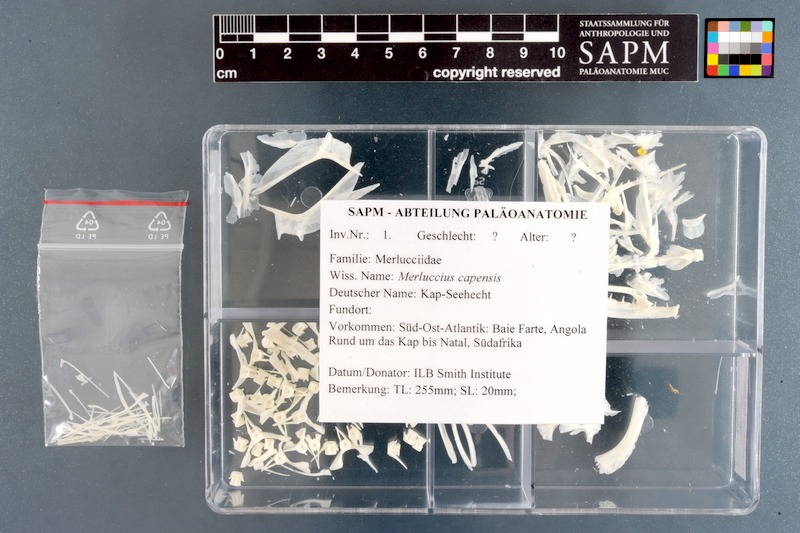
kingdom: Animalia
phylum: Chordata
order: Clupeiformes
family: Clupeidae
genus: Clupea
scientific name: Clupea harengus
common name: Herring
